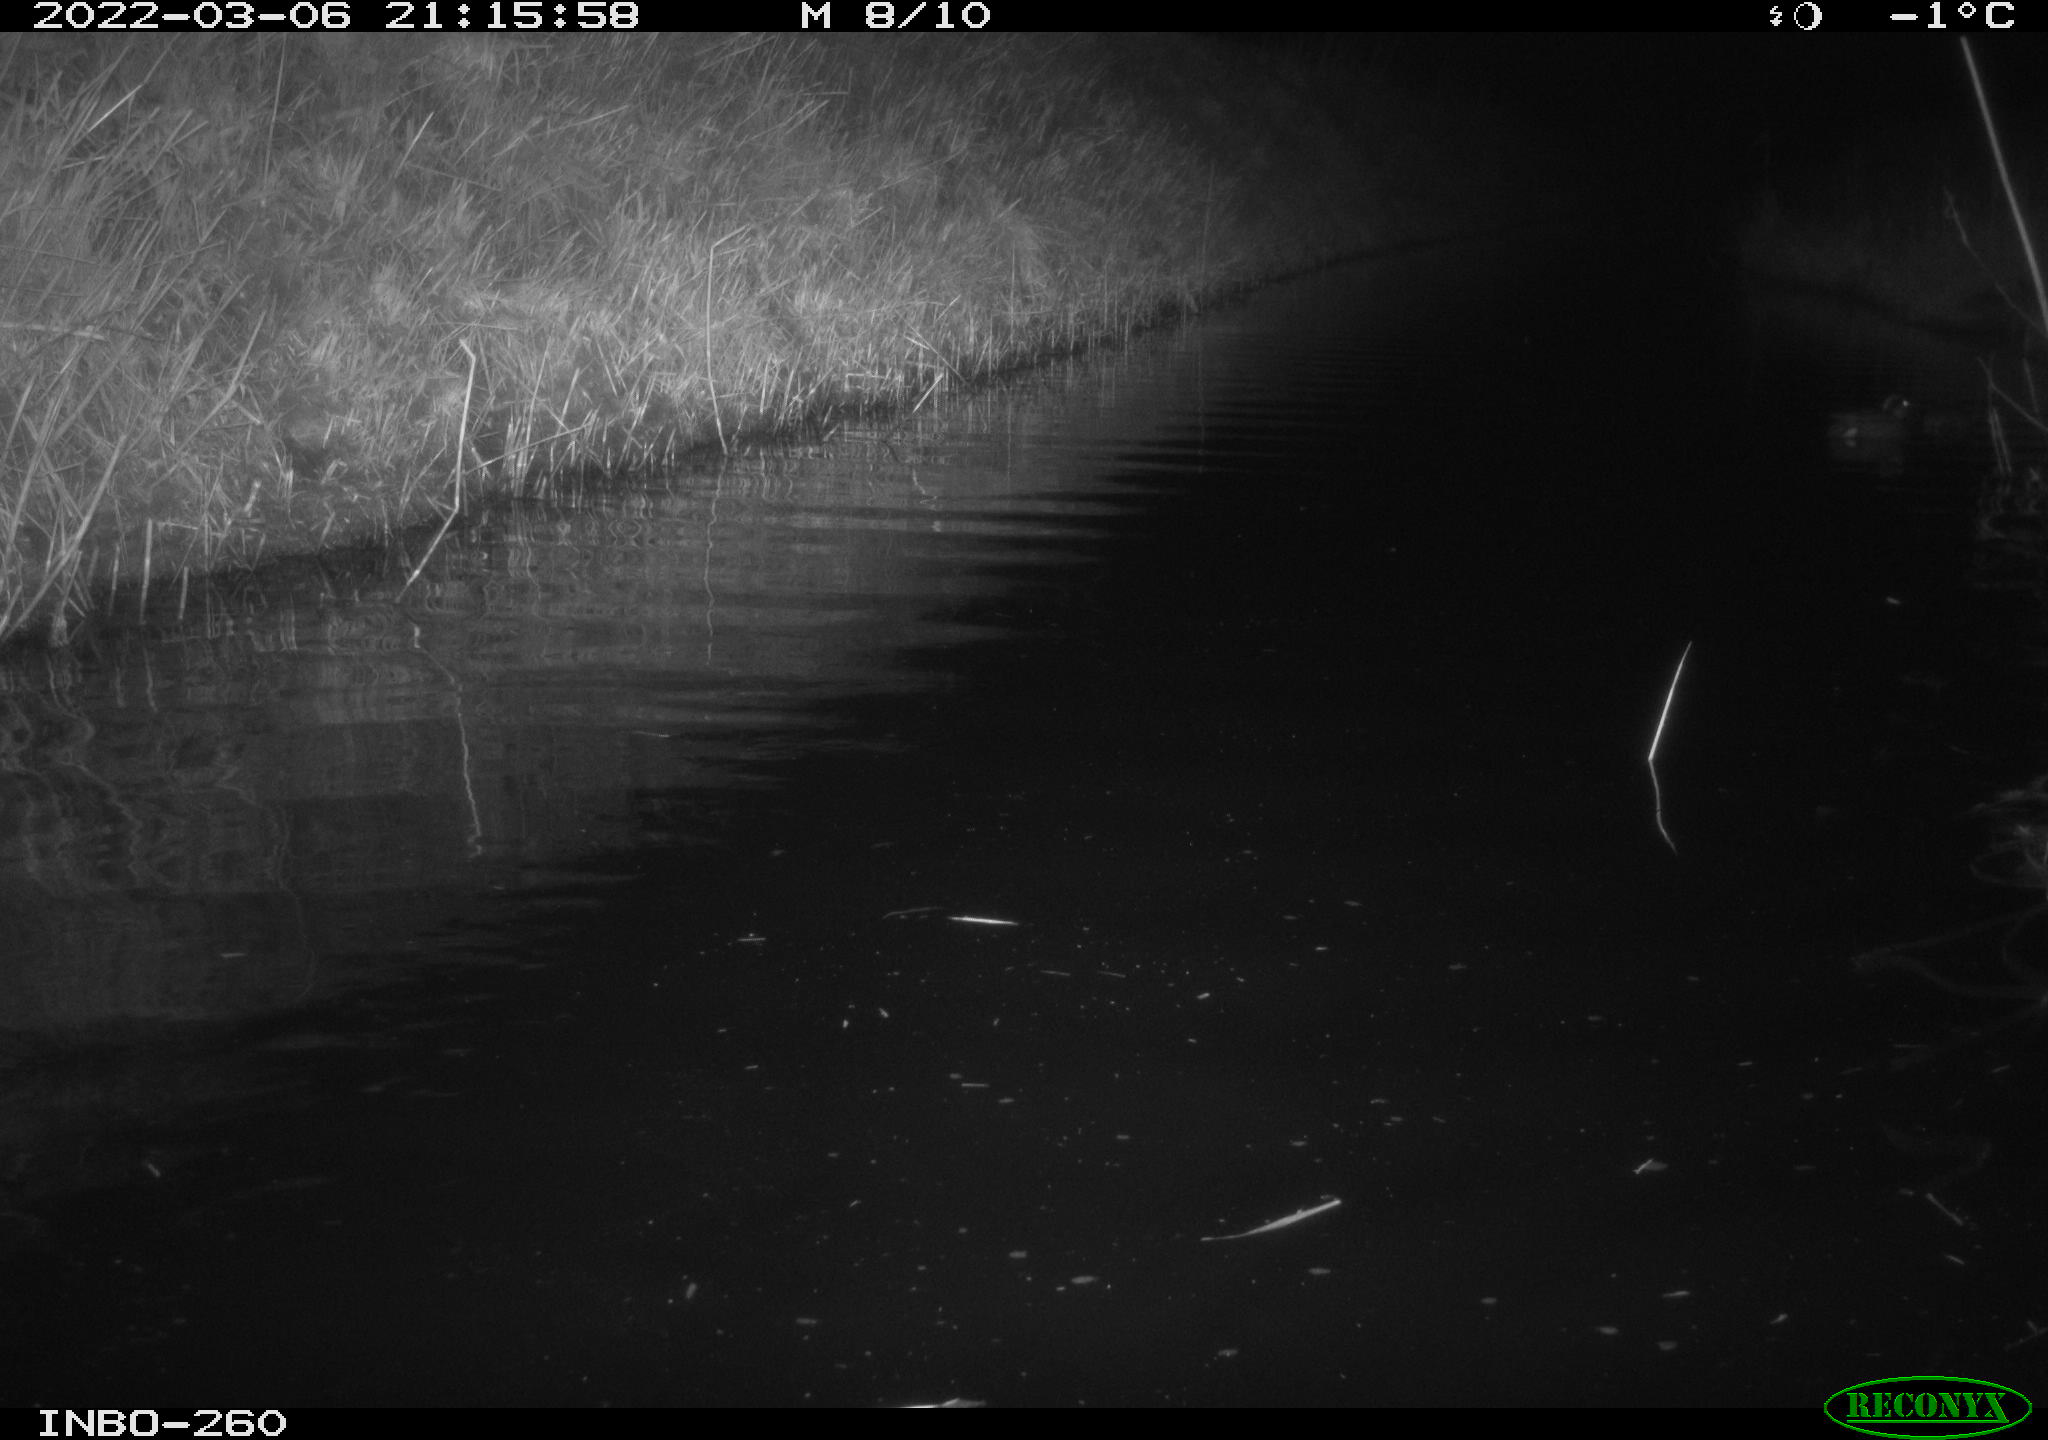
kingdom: Animalia
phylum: Chordata
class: Mammalia
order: Rodentia
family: Cricetidae
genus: Ondatra
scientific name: Ondatra zibethicus
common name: Muskrat
